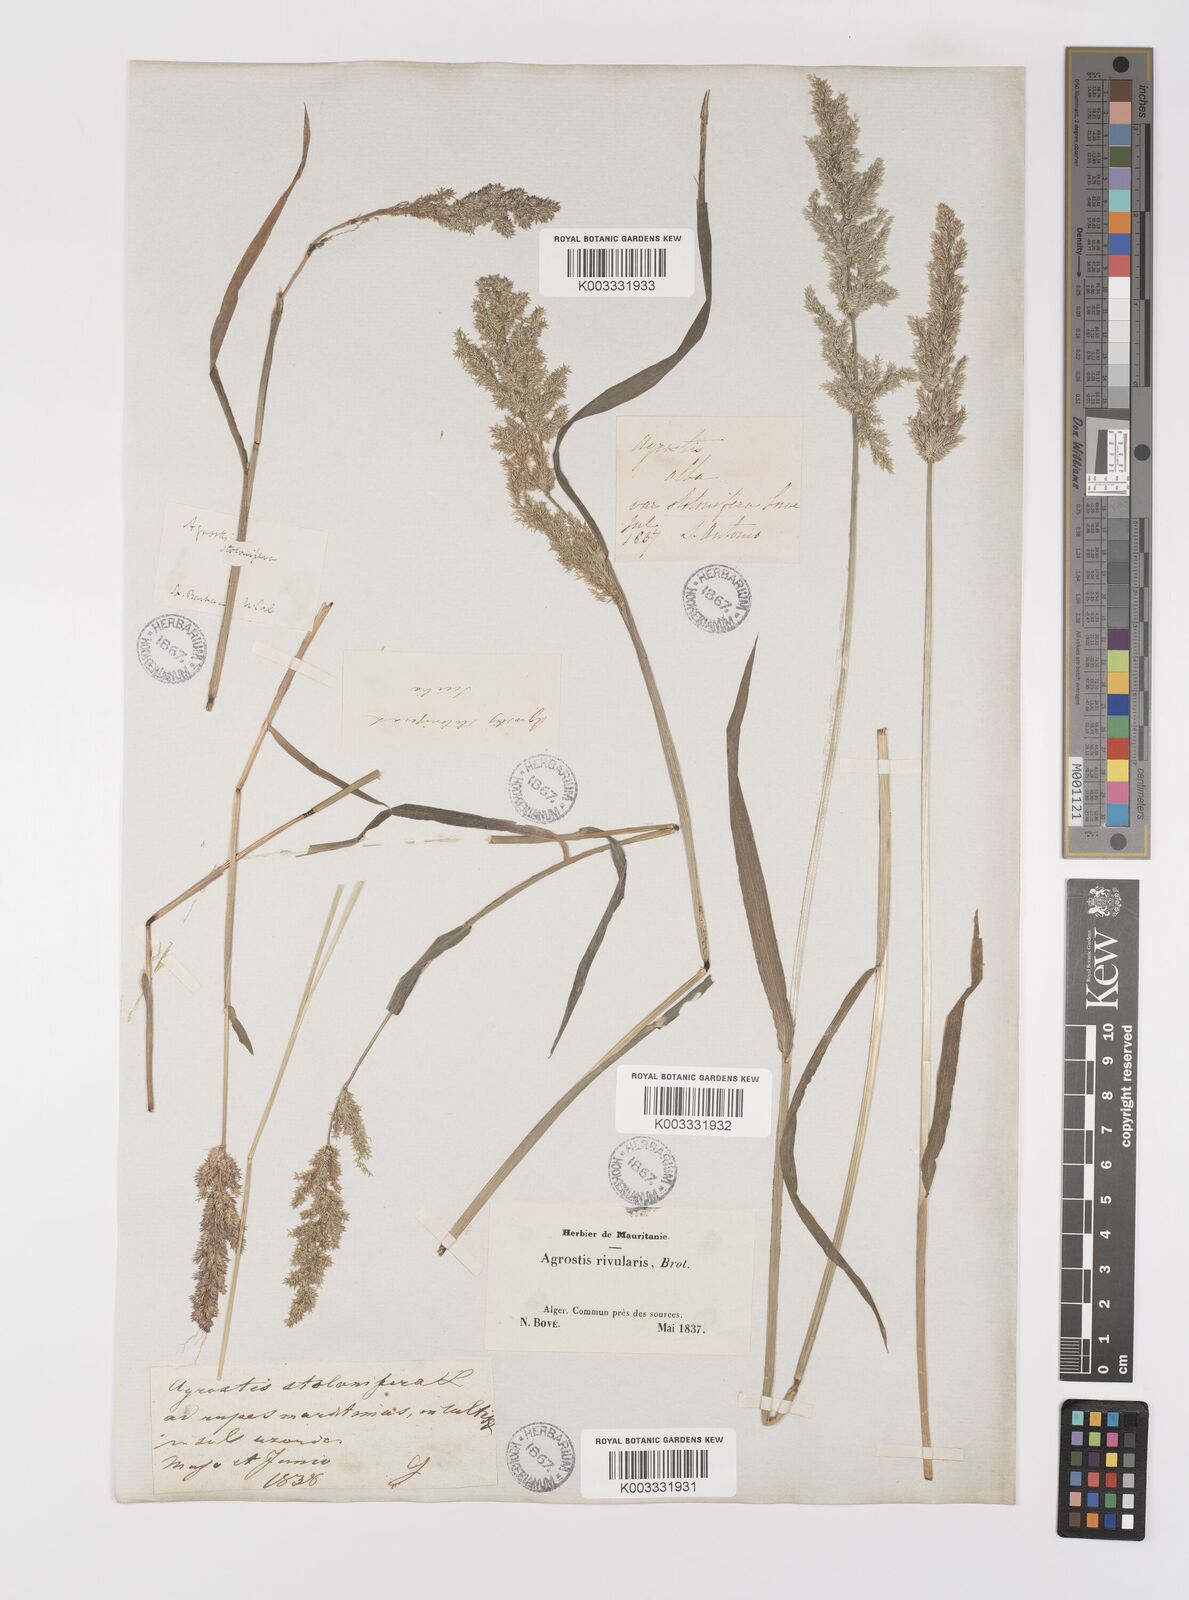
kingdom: Plantae
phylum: Tracheophyta
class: Liliopsida
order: Poales
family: Poaceae
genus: Polypogon
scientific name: Polypogon viridis
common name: Water bent
